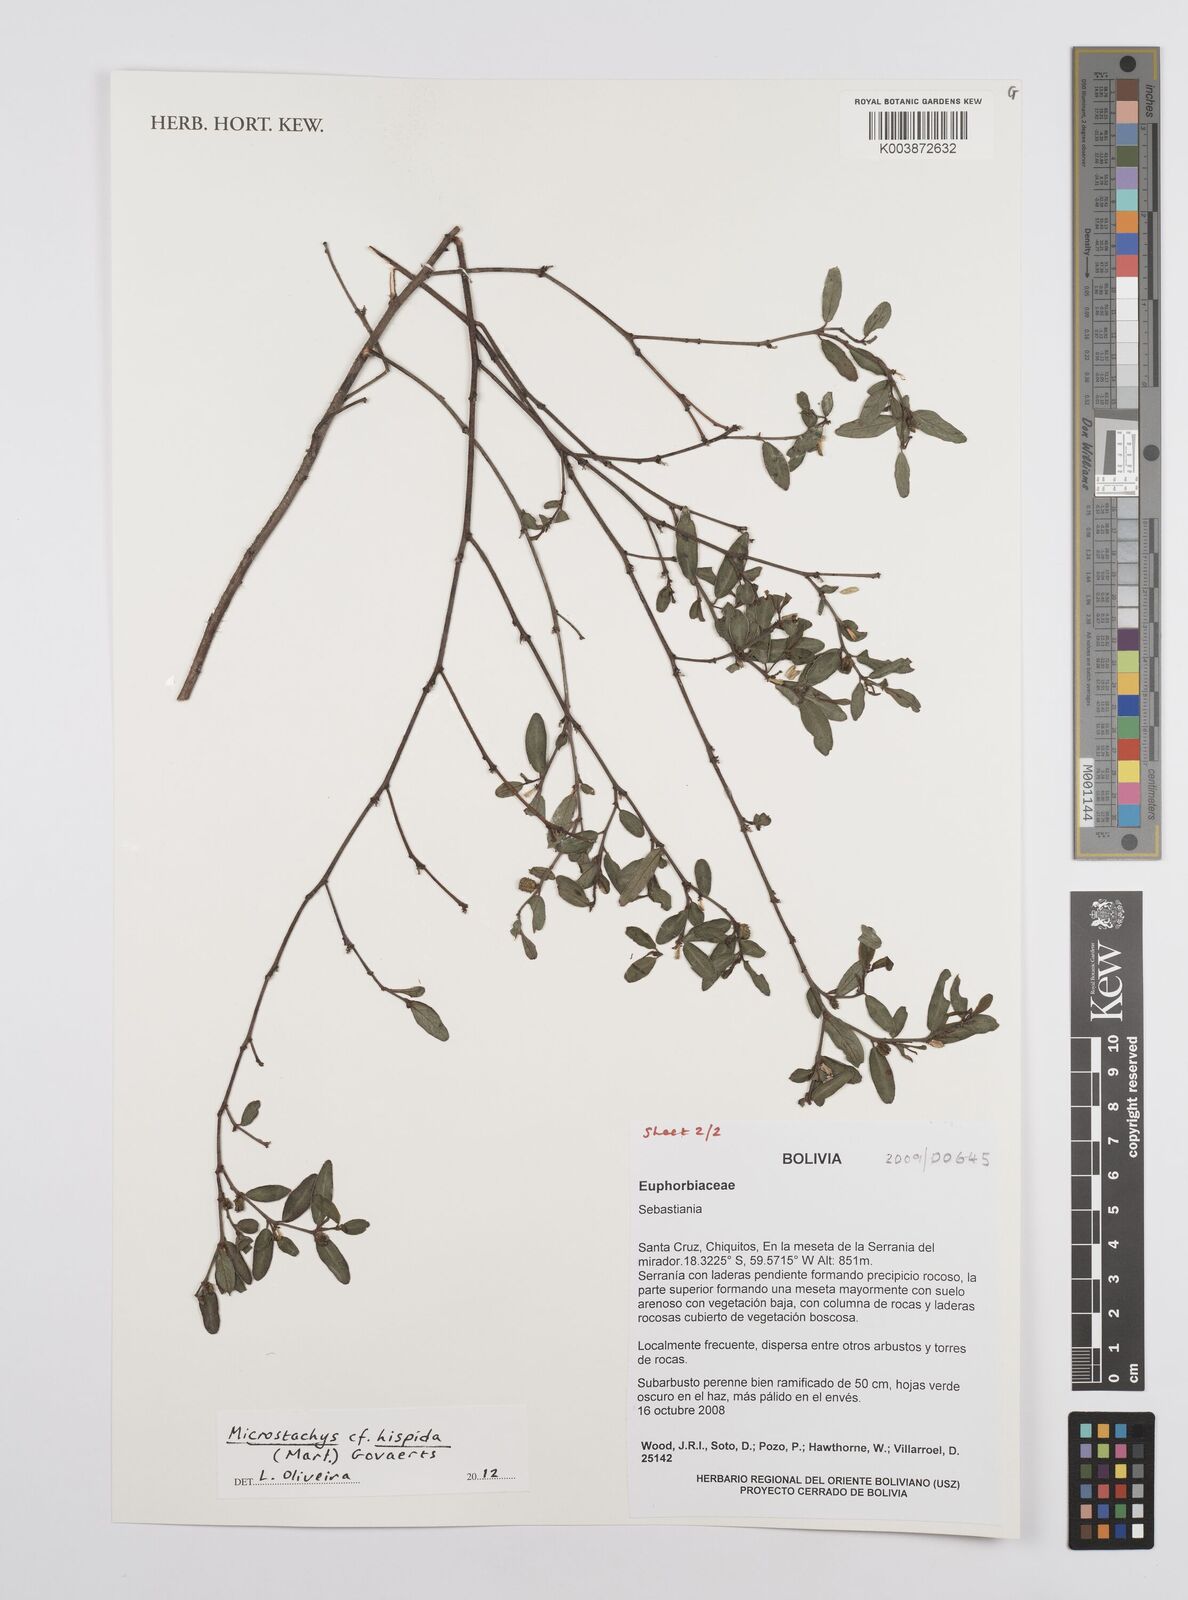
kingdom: Plantae
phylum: Tracheophyta
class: Magnoliopsida
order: Malpighiales
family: Euphorbiaceae
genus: Microstachys
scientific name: Microstachys hispida
